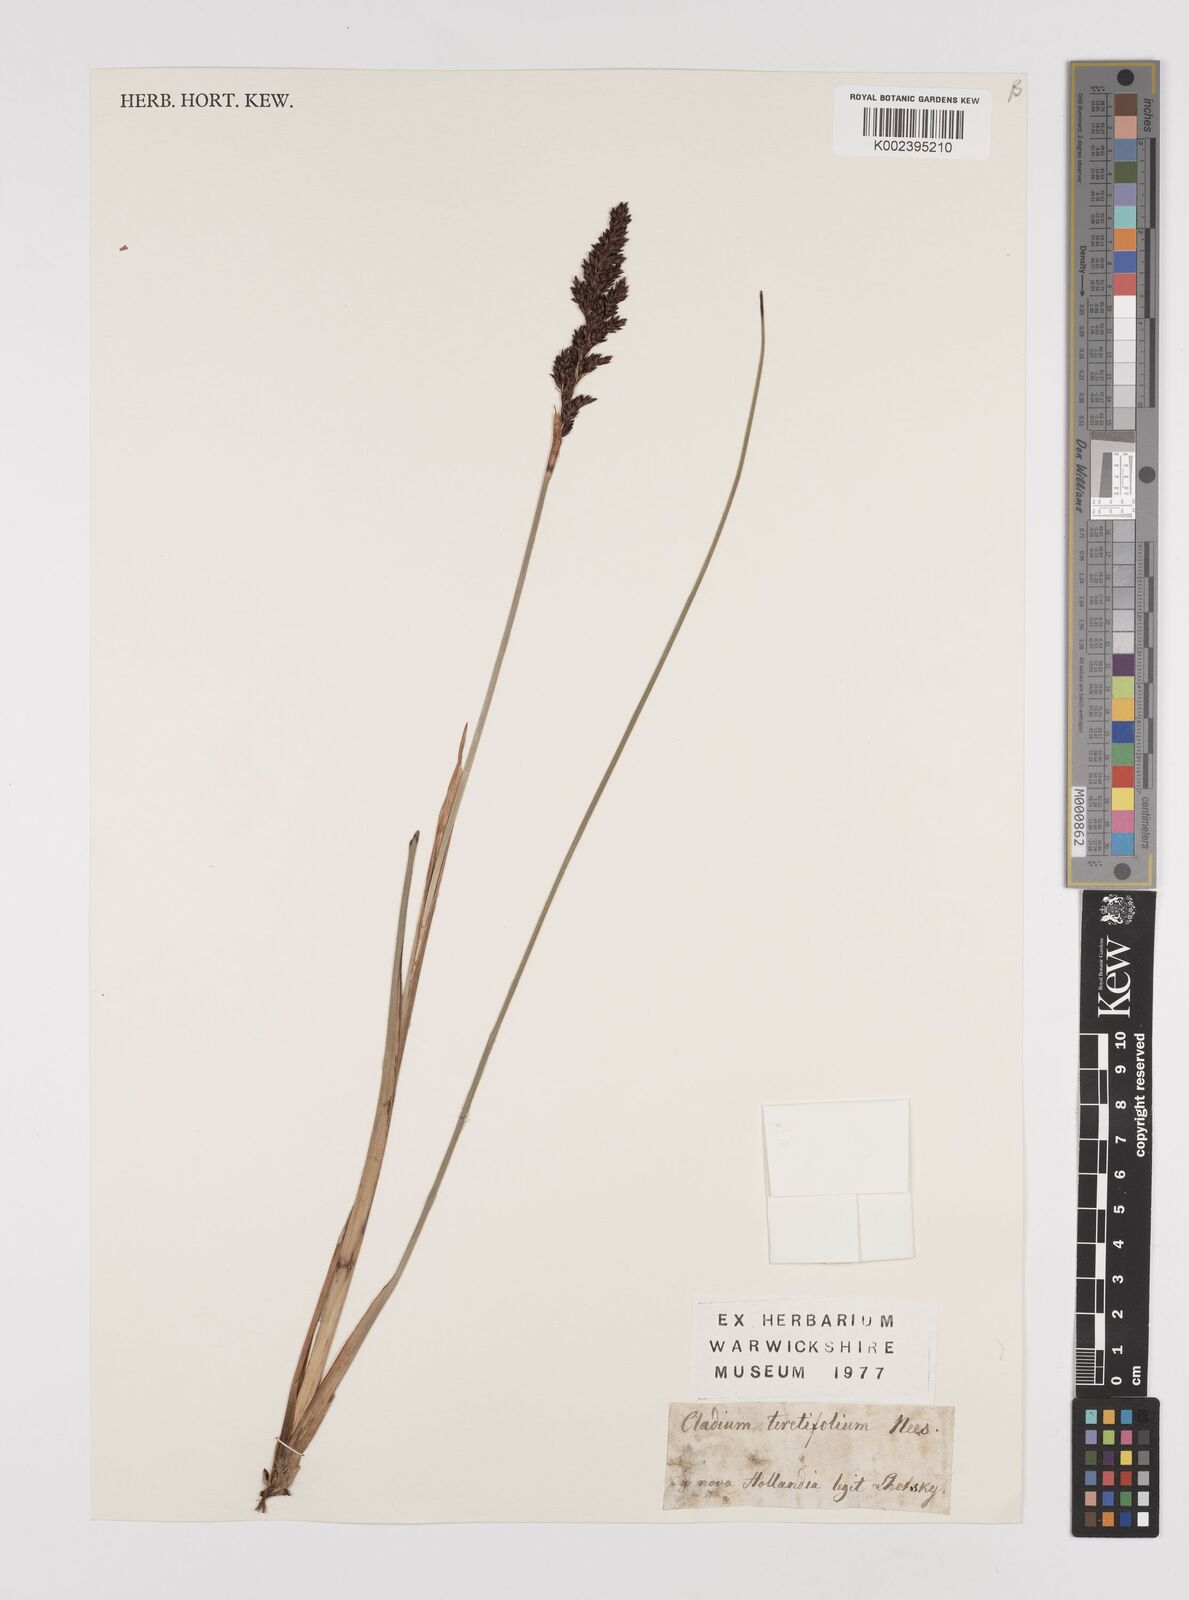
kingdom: Plantae
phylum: Tracheophyta
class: Liliopsida
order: Poales
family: Cyperaceae
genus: Machaerina
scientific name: Machaerina teretifolia
